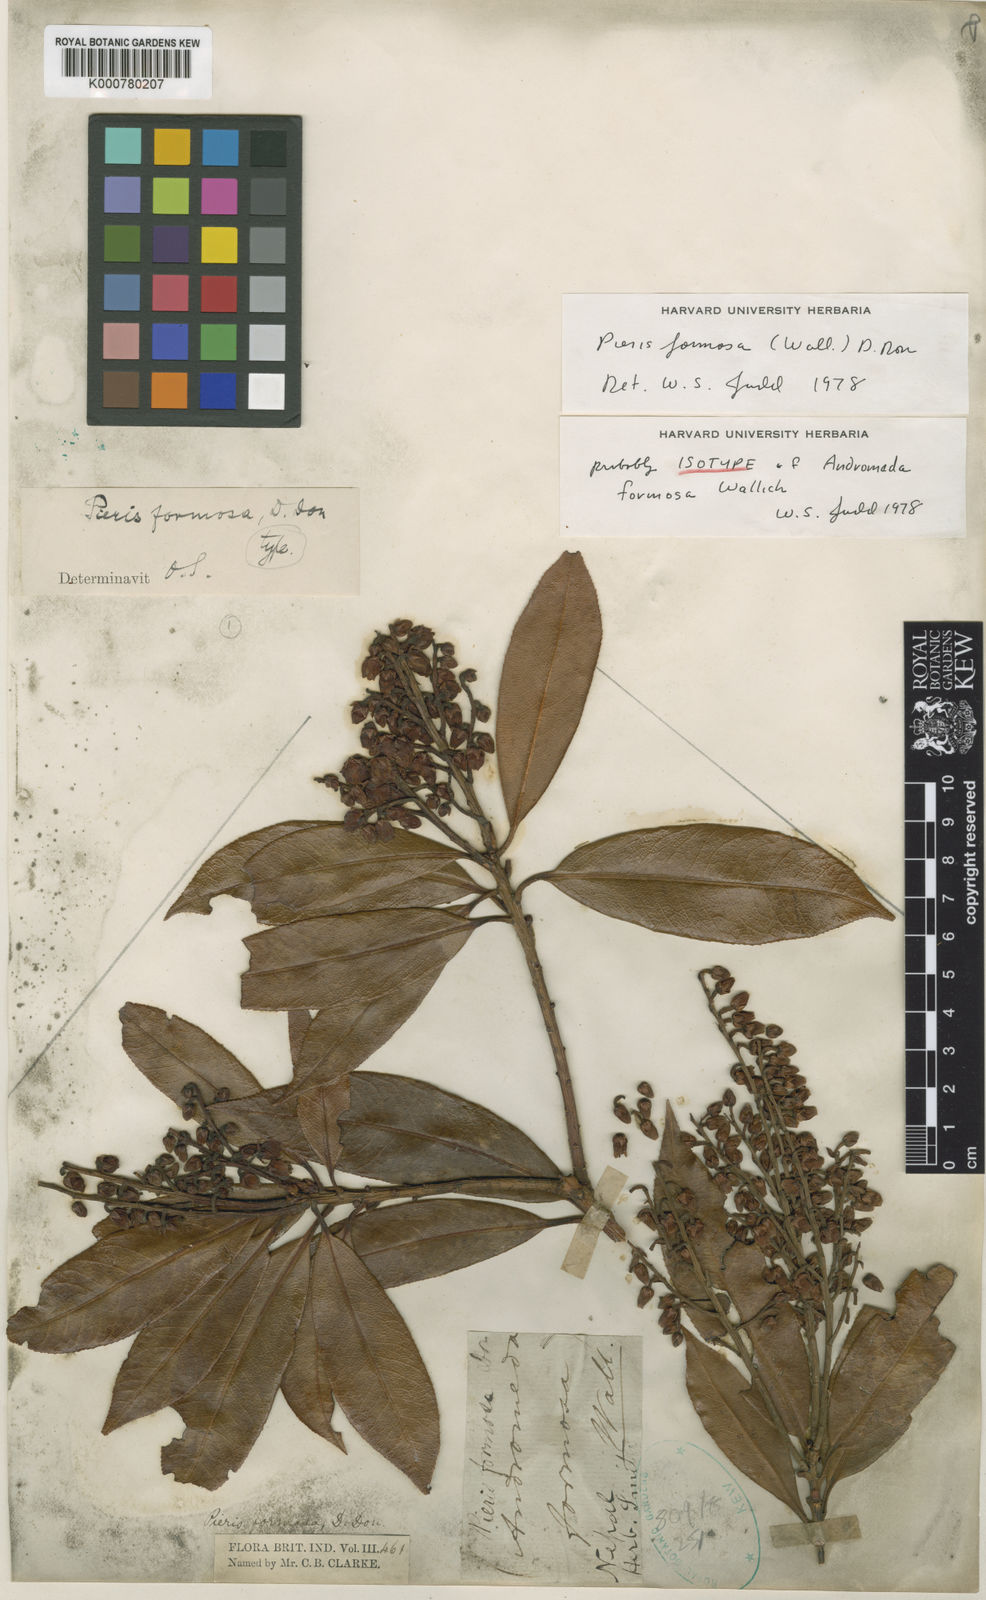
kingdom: Plantae
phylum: Tracheophyta
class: Magnoliopsida
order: Ericales
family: Ericaceae
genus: Pieris
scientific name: Pieris formosa
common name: Formosan pieris
